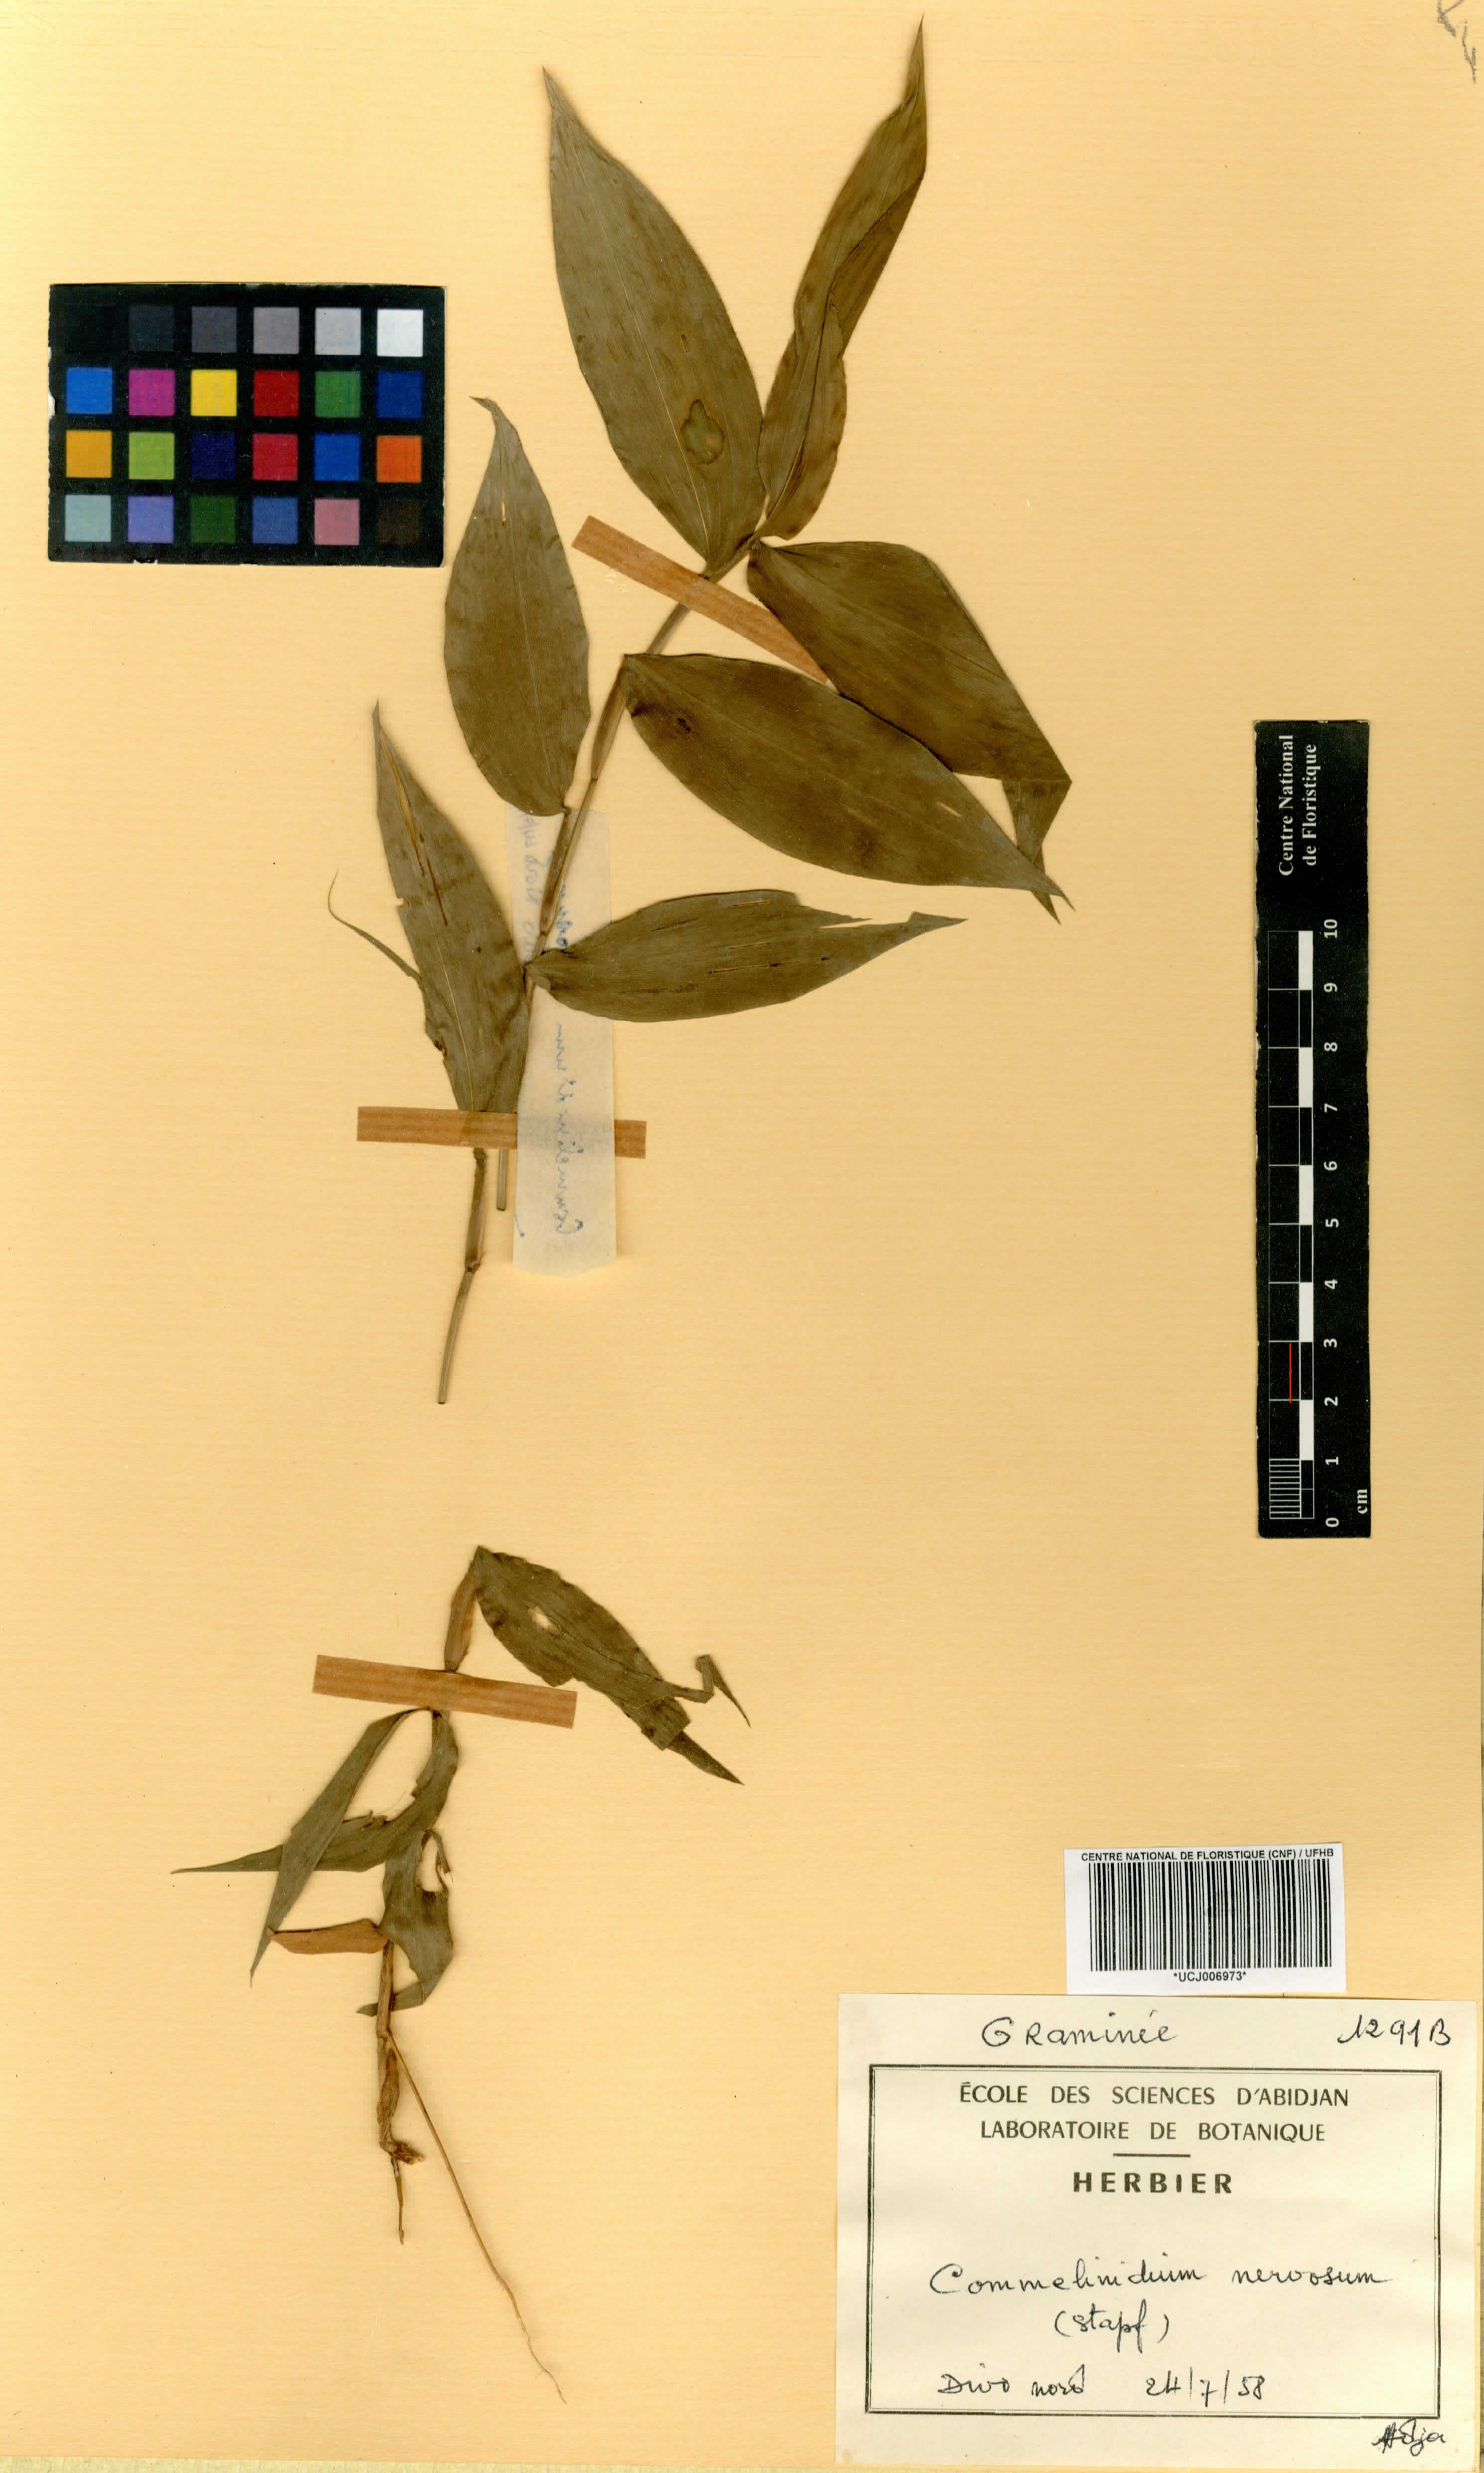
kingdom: Plantae
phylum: Tracheophyta
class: Liliopsida
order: Poales
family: Poaceae
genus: Acroceras
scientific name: Acroceras gabunense
